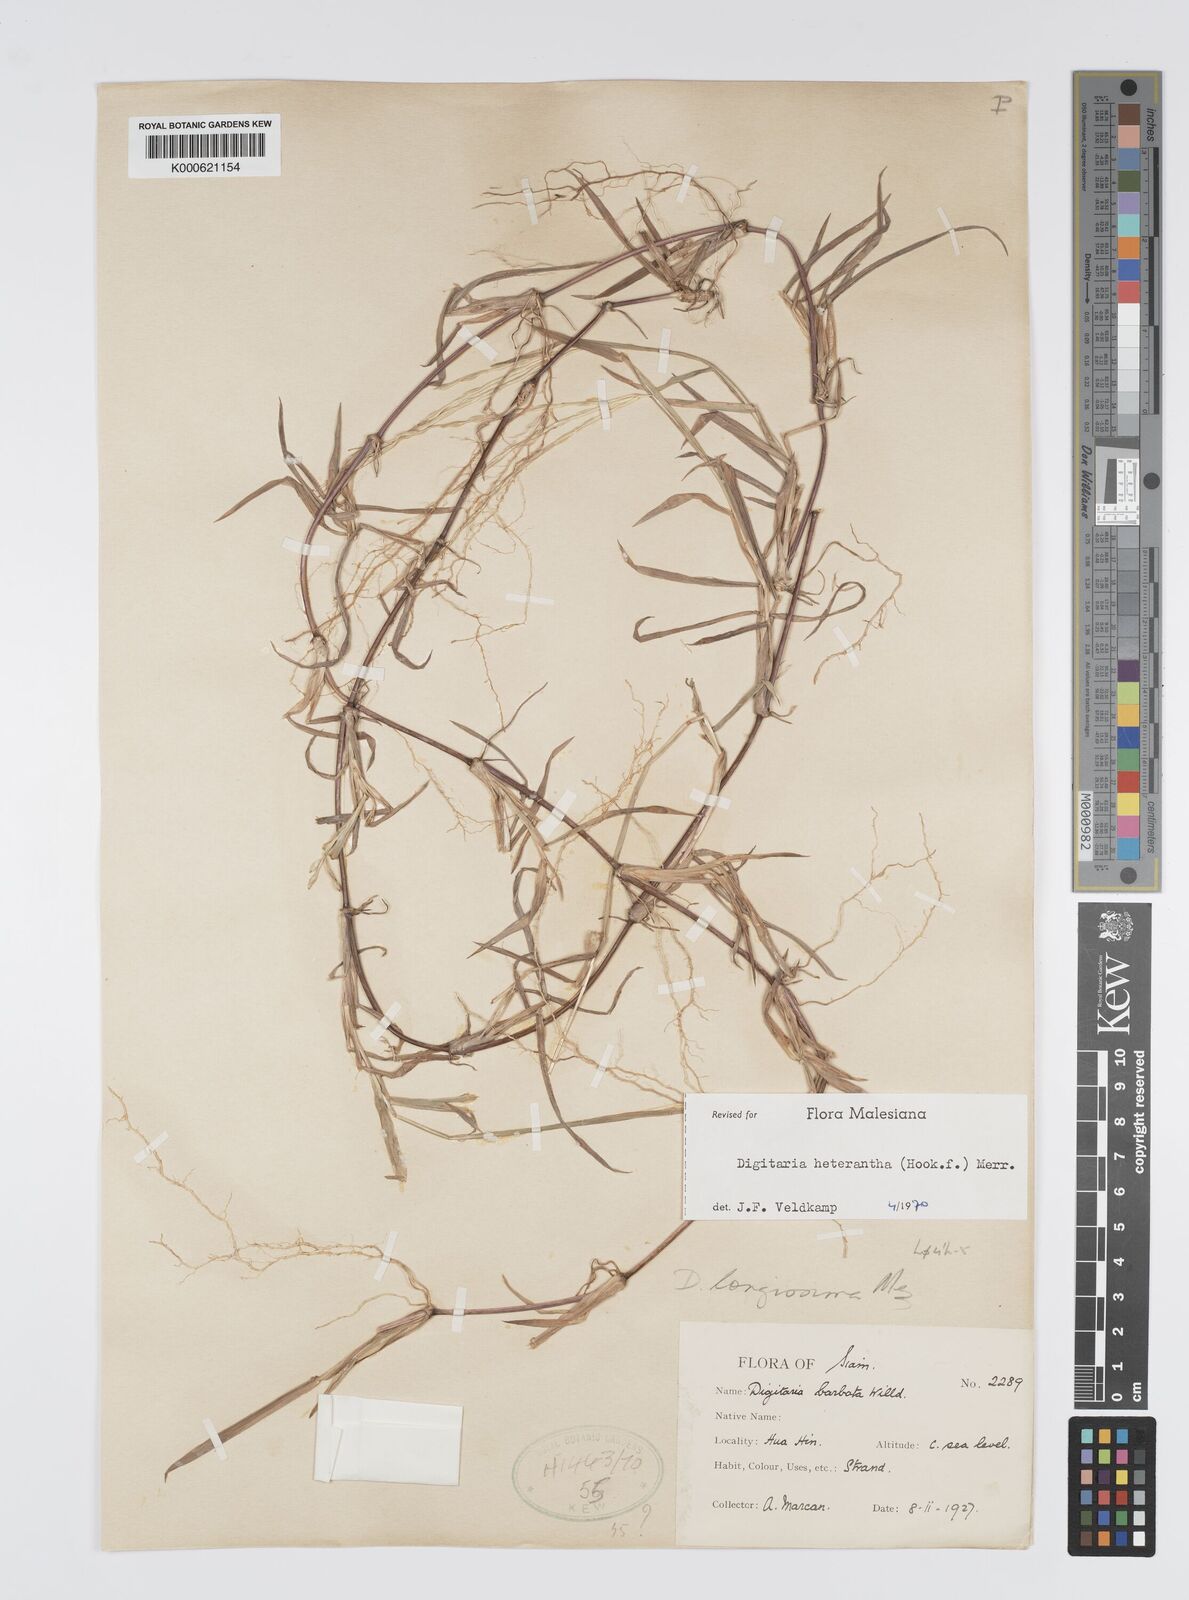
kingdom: Plantae
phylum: Tracheophyta
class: Liliopsida
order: Poales
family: Poaceae
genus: Digitaria
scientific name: Digitaria heterantha
